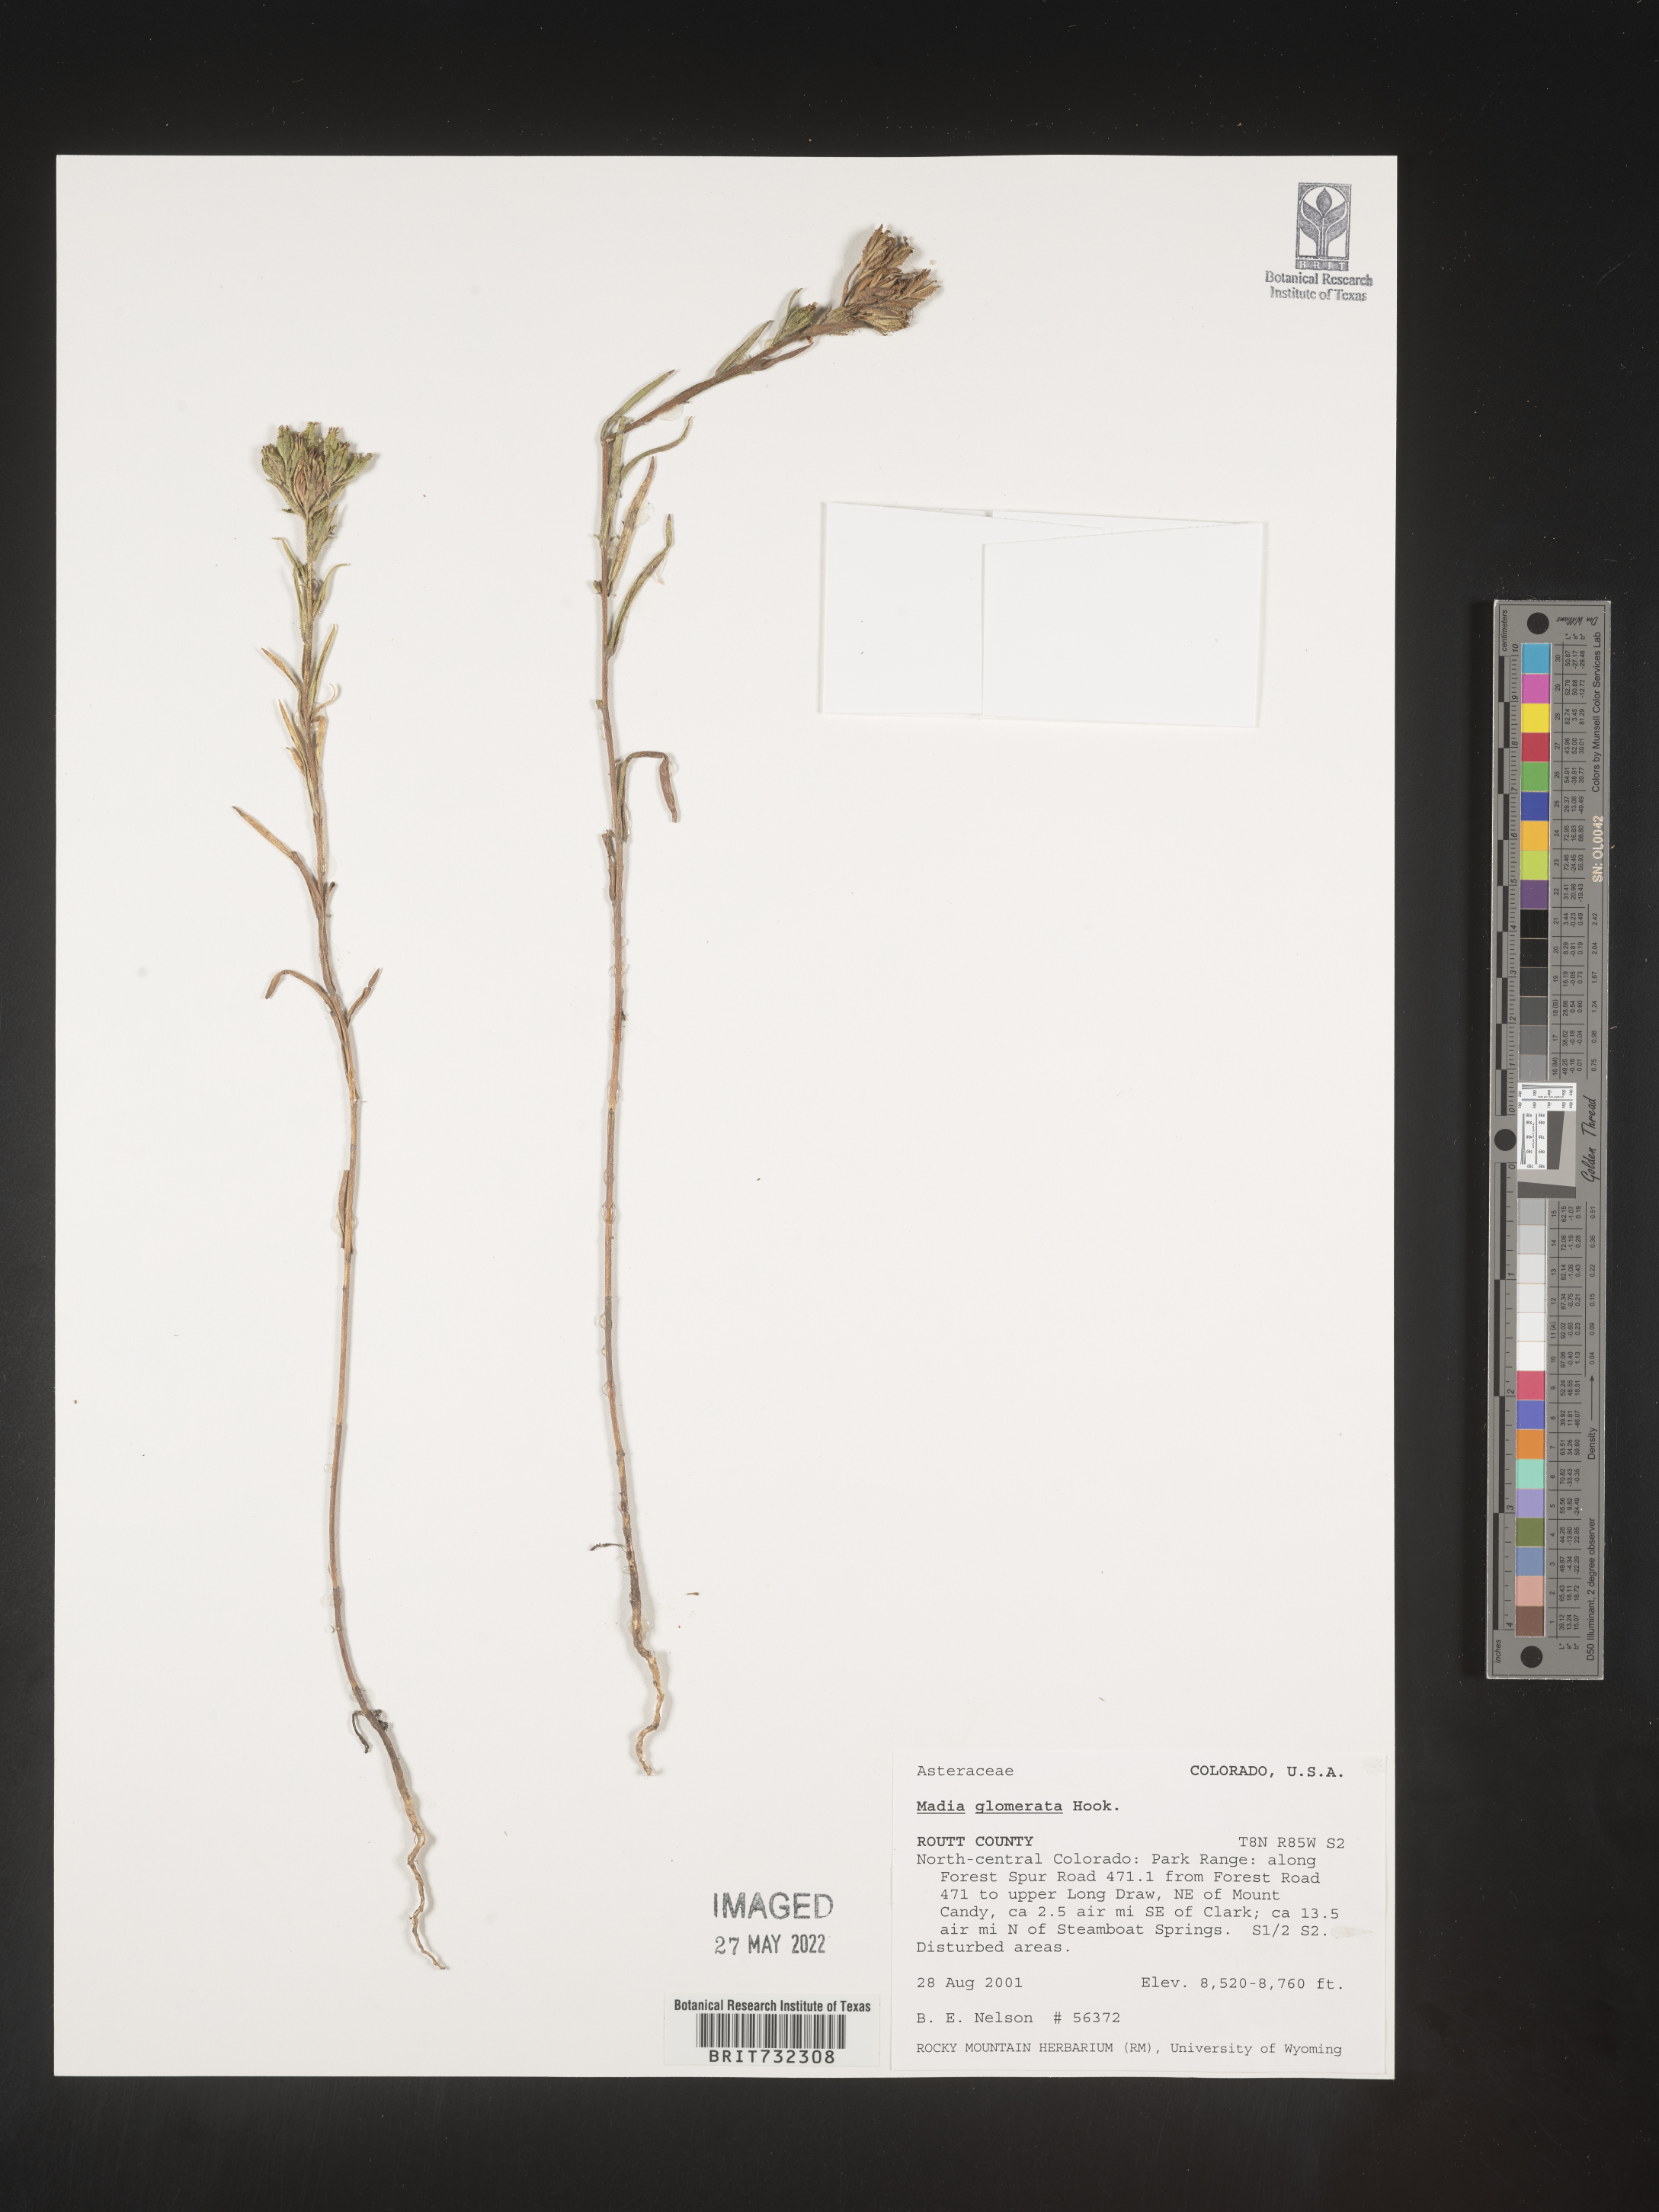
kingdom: Plantae
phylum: Tracheophyta
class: Magnoliopsida
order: Asterales
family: Asteraceae
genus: Madia
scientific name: Madia glomerata
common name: Mountain tarweed
